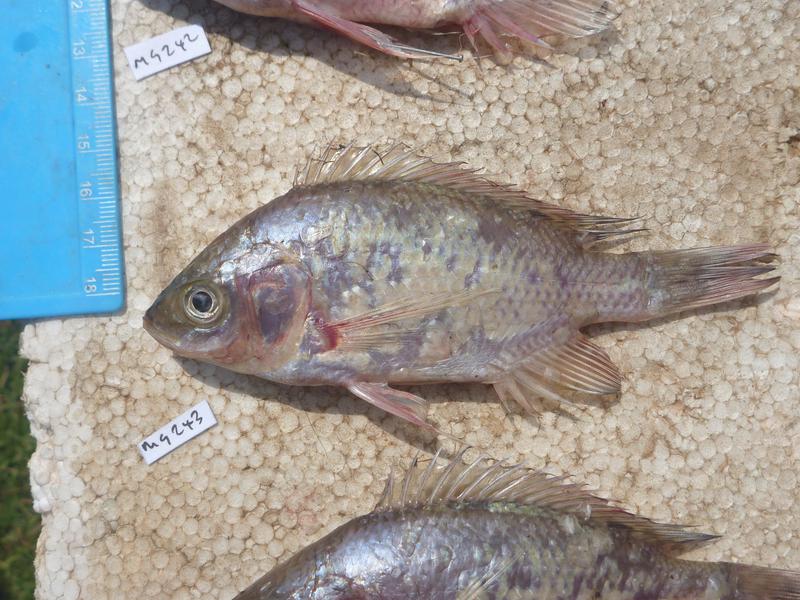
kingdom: Animalia
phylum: Chordata
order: Perciformes
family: Cichlidae
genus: Oreochromis
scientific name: Oreochromis esculentus
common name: Carp
